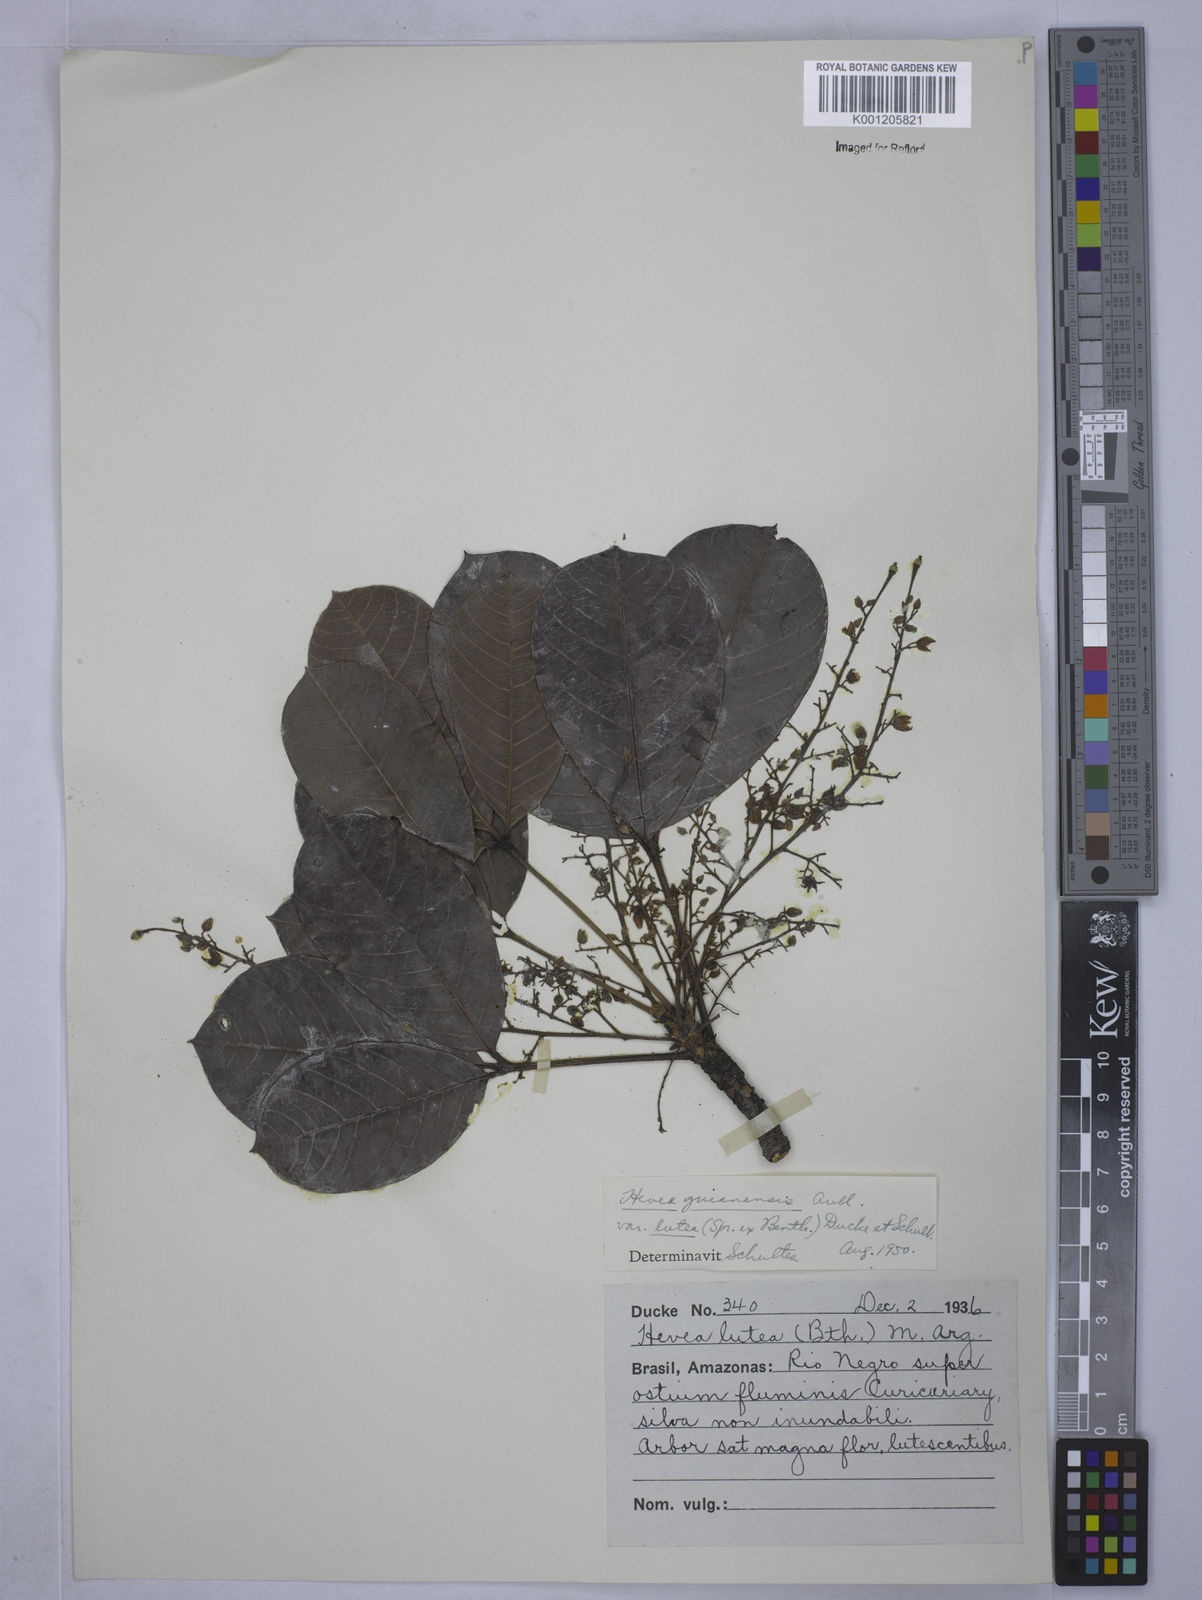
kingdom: Plantae
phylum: Tracheophyta
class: Magnoliopsida
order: Malpighiales
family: Euphorbiaceae
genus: Hevea
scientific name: Hevea guianensis
